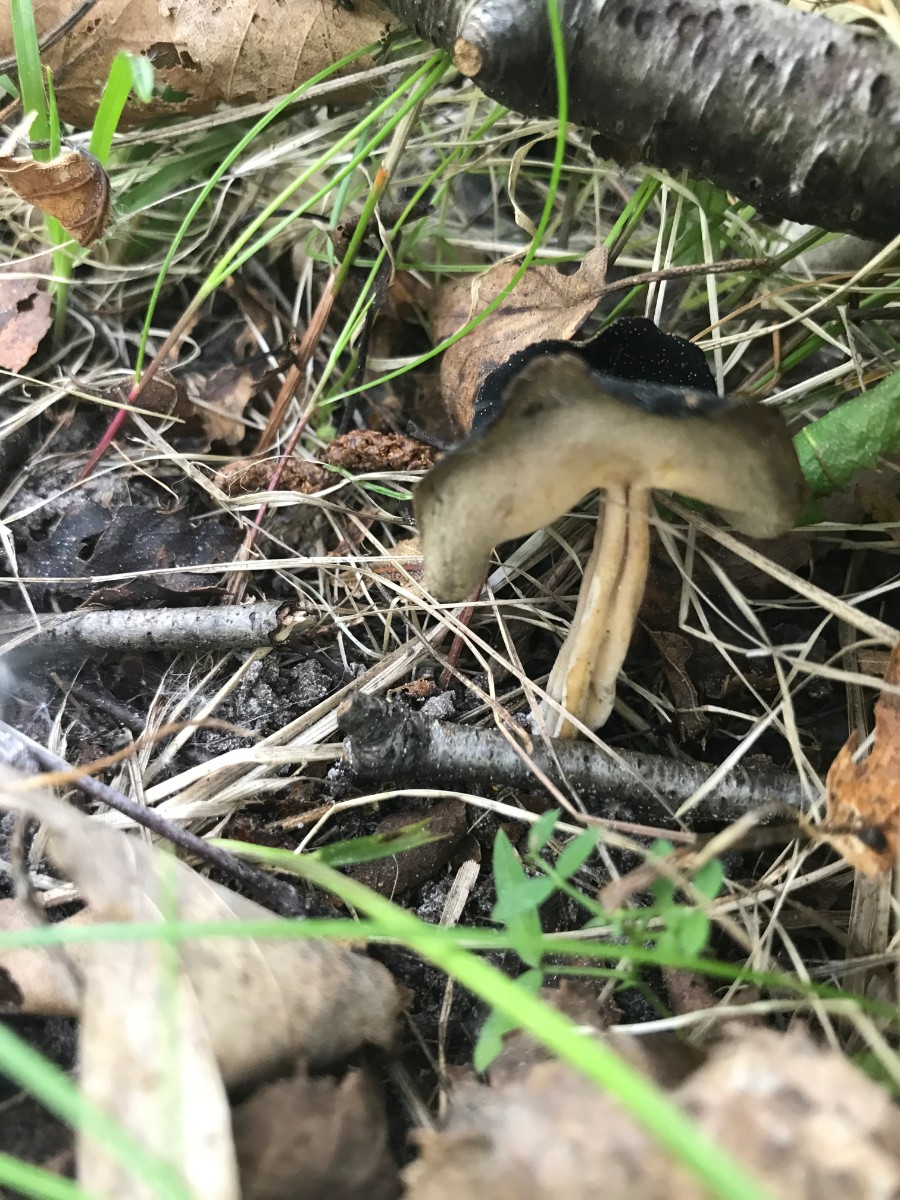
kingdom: Fungi
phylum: Ascomycota
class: Pezizomycetes
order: Pezizales
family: Helvellaceae
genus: Helvella
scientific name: Helvella solitaria
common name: Quélets foldhat
